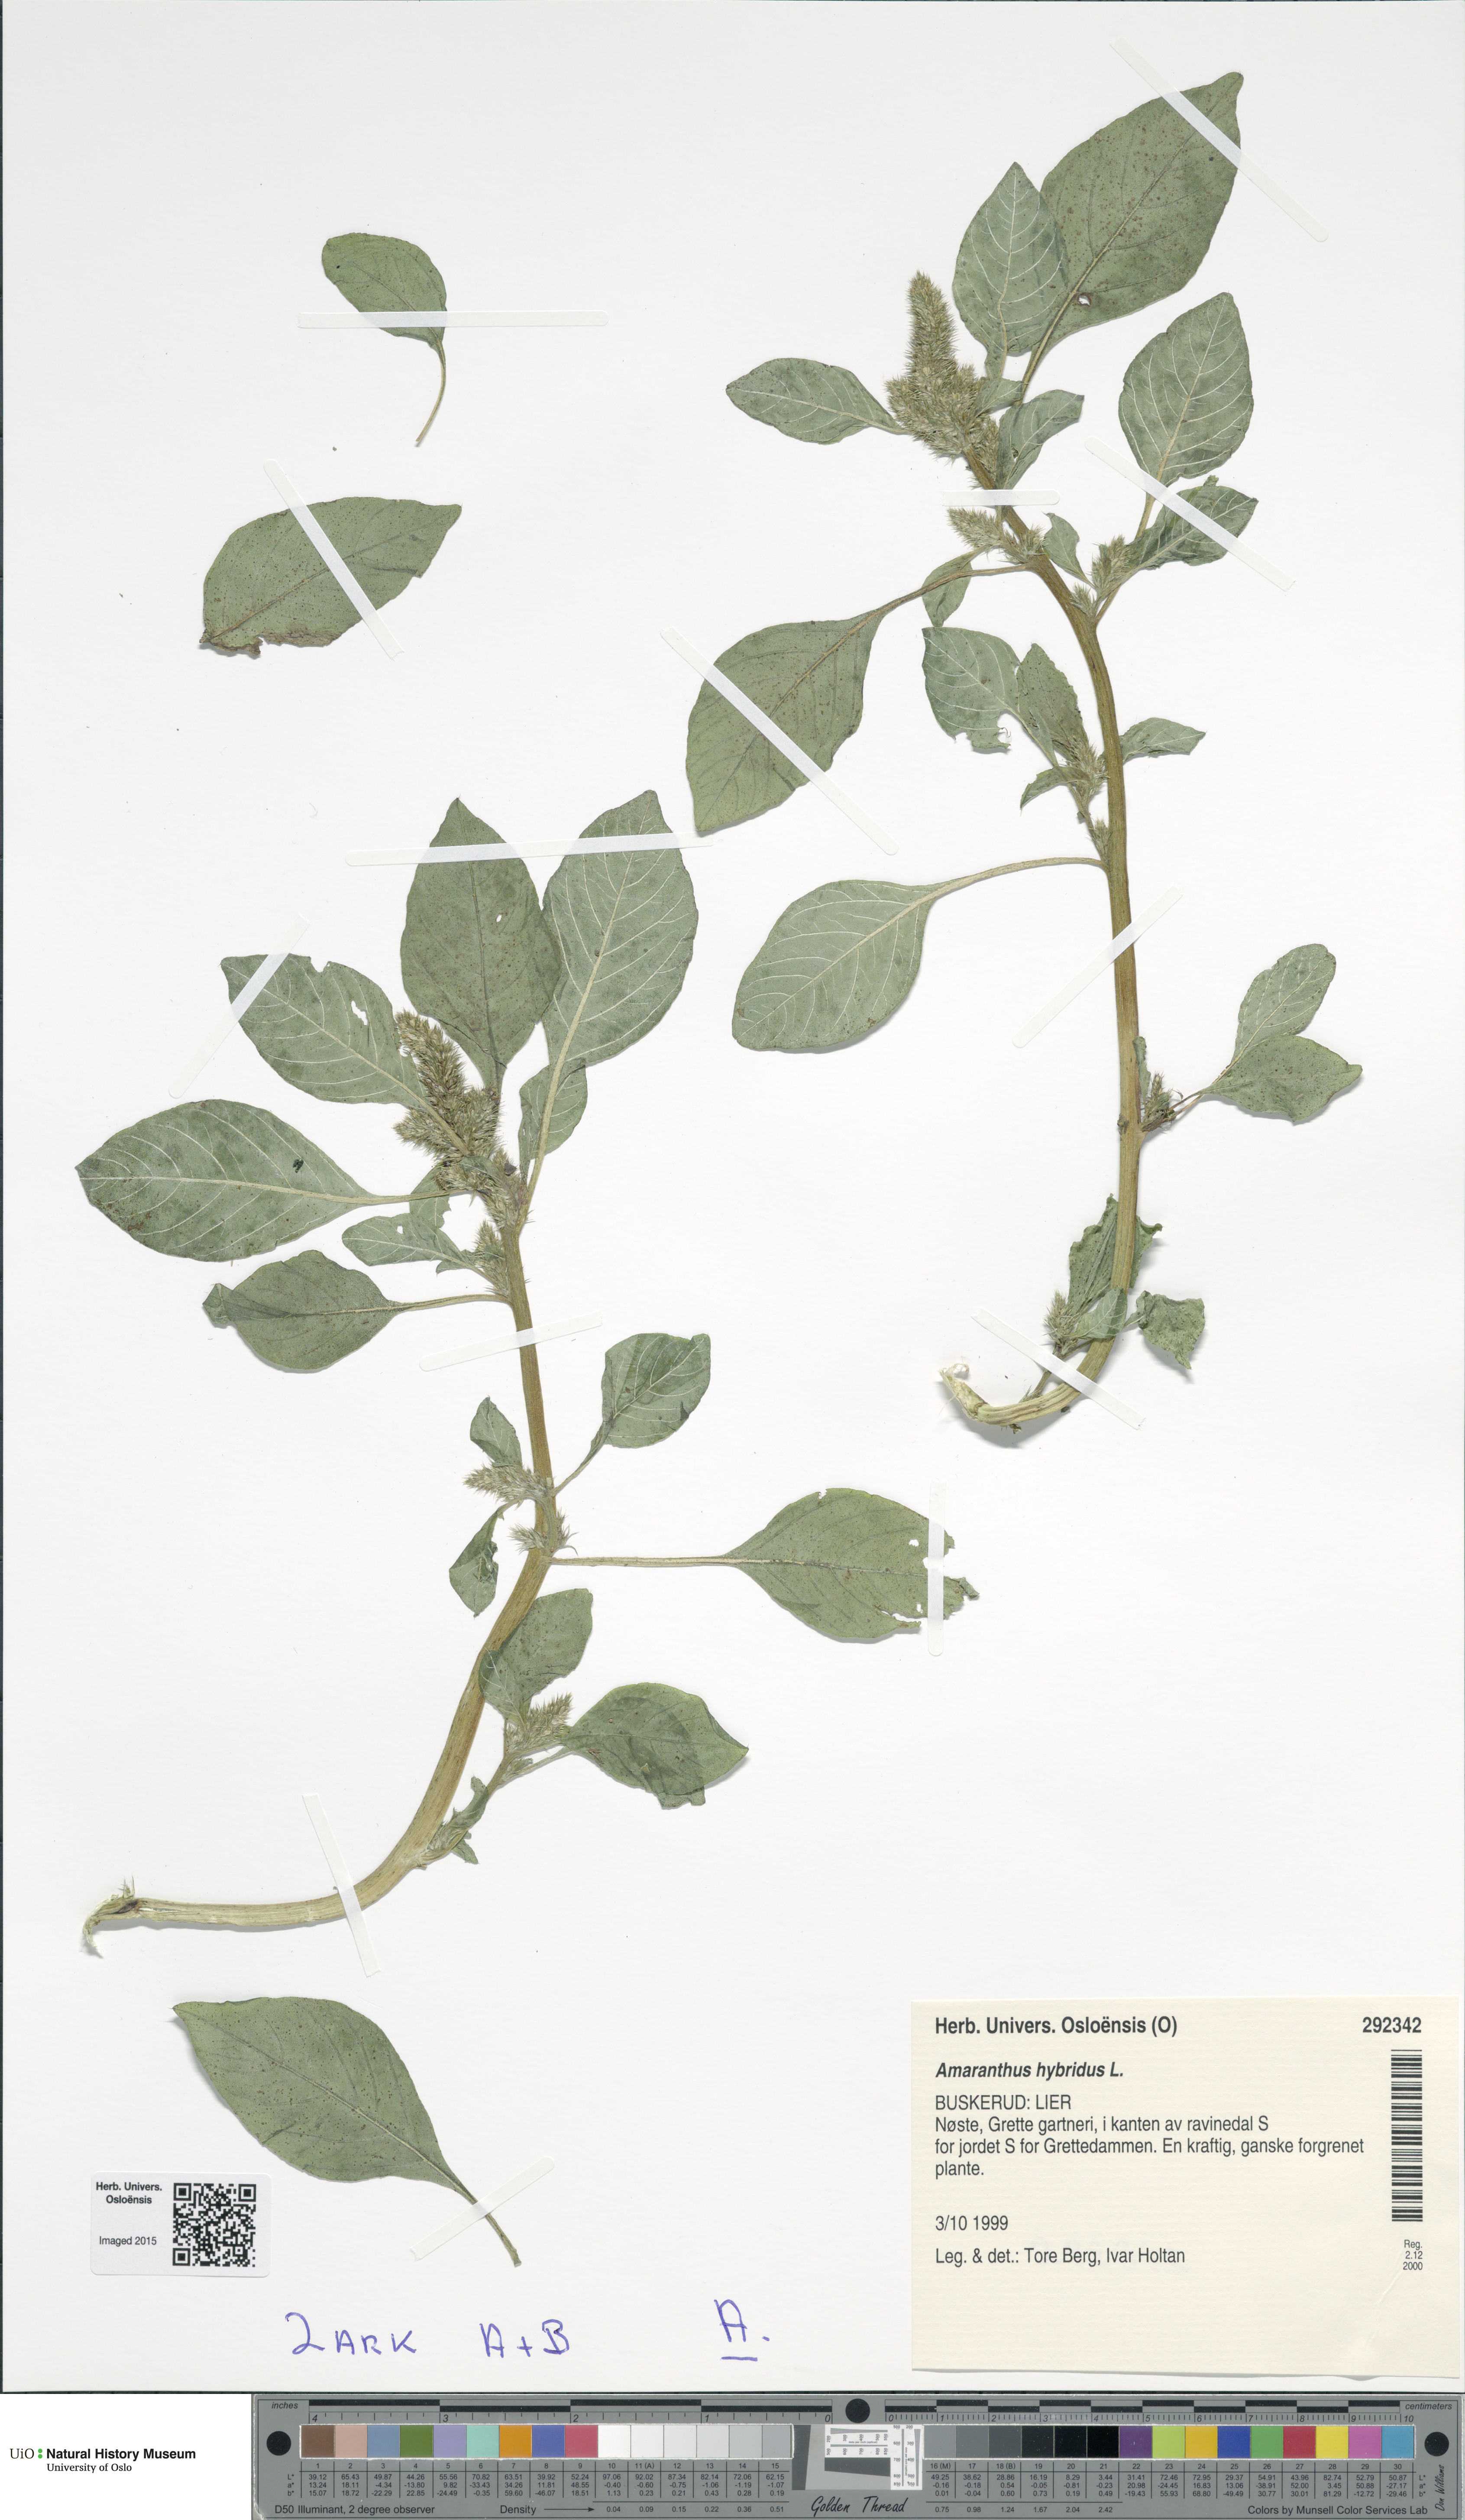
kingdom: Plantae
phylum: Tracheophyta
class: Magnoliopsida
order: Caryophyllales
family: Amaranthaceae
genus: Amaranthus
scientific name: Amaranthus hybridus
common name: Green amaranth
